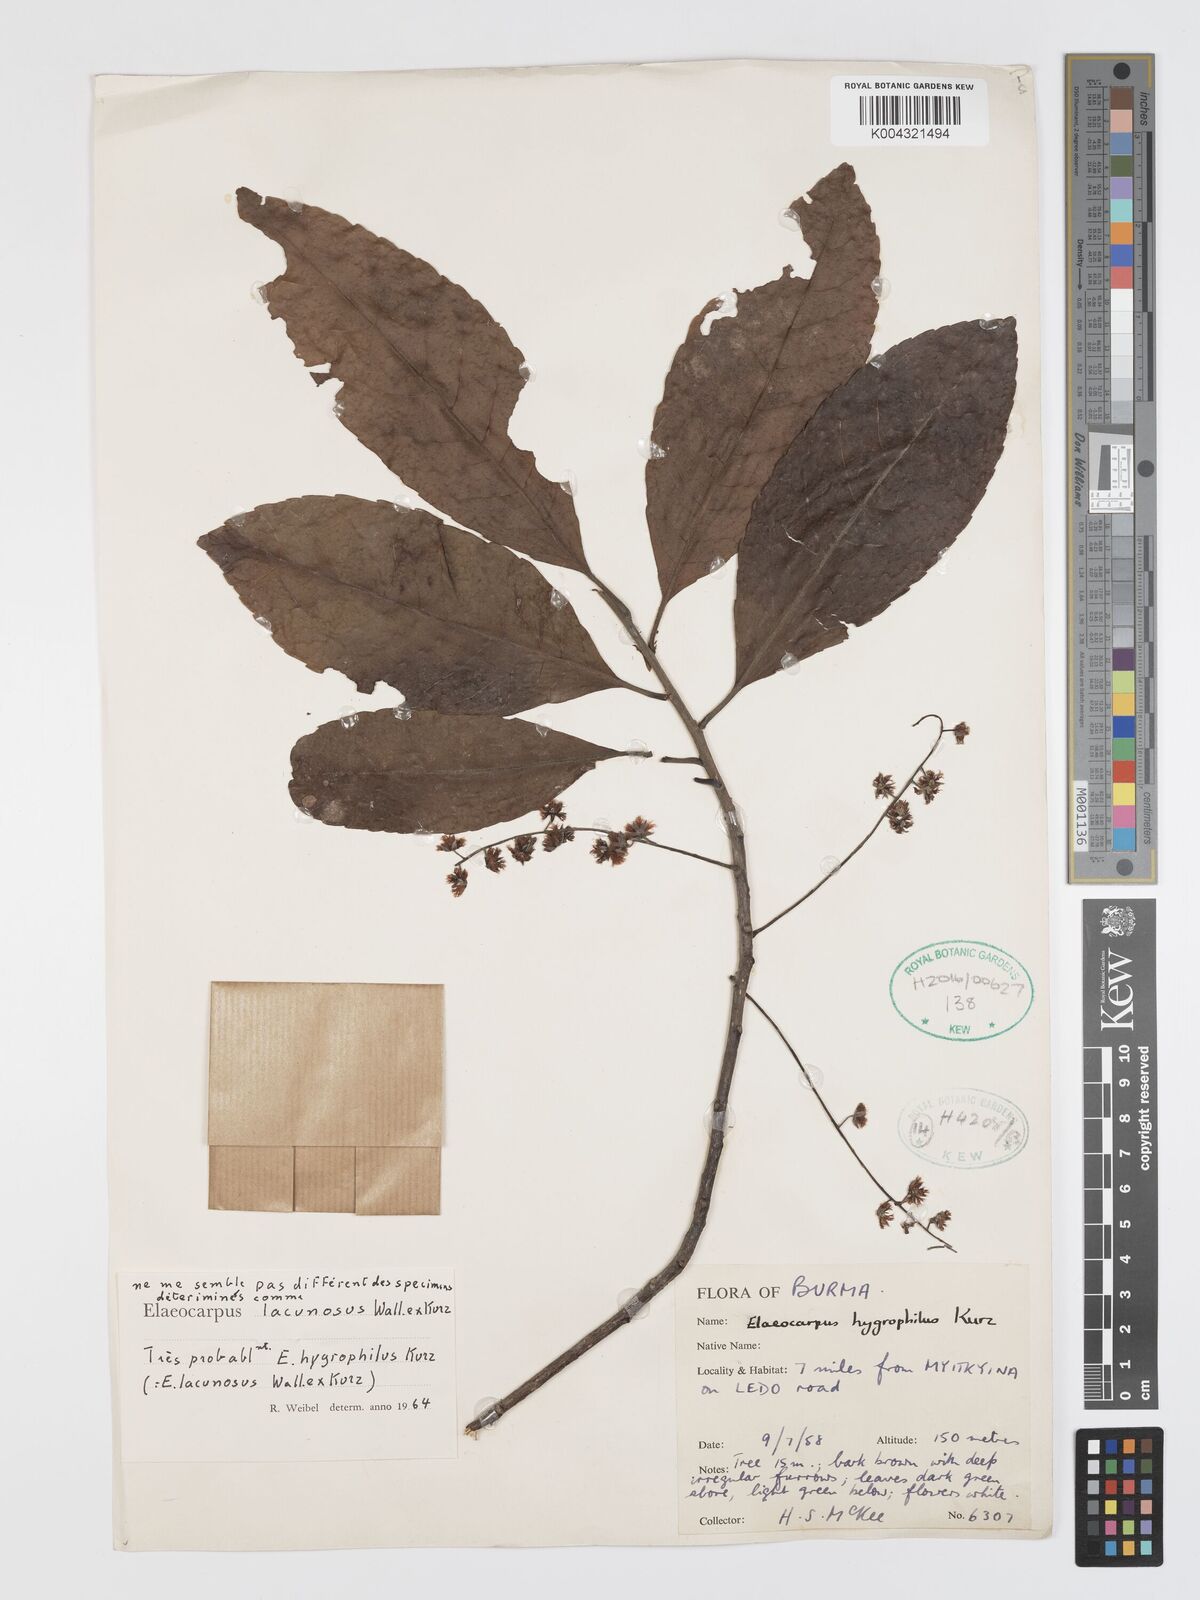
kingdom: Plantae
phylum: Tracheophyta
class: Magnoliopsida
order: Oxalidales
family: Elaeocarpaceae
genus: Elaeocarpus
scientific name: Elaeocarpus lanceifolius
